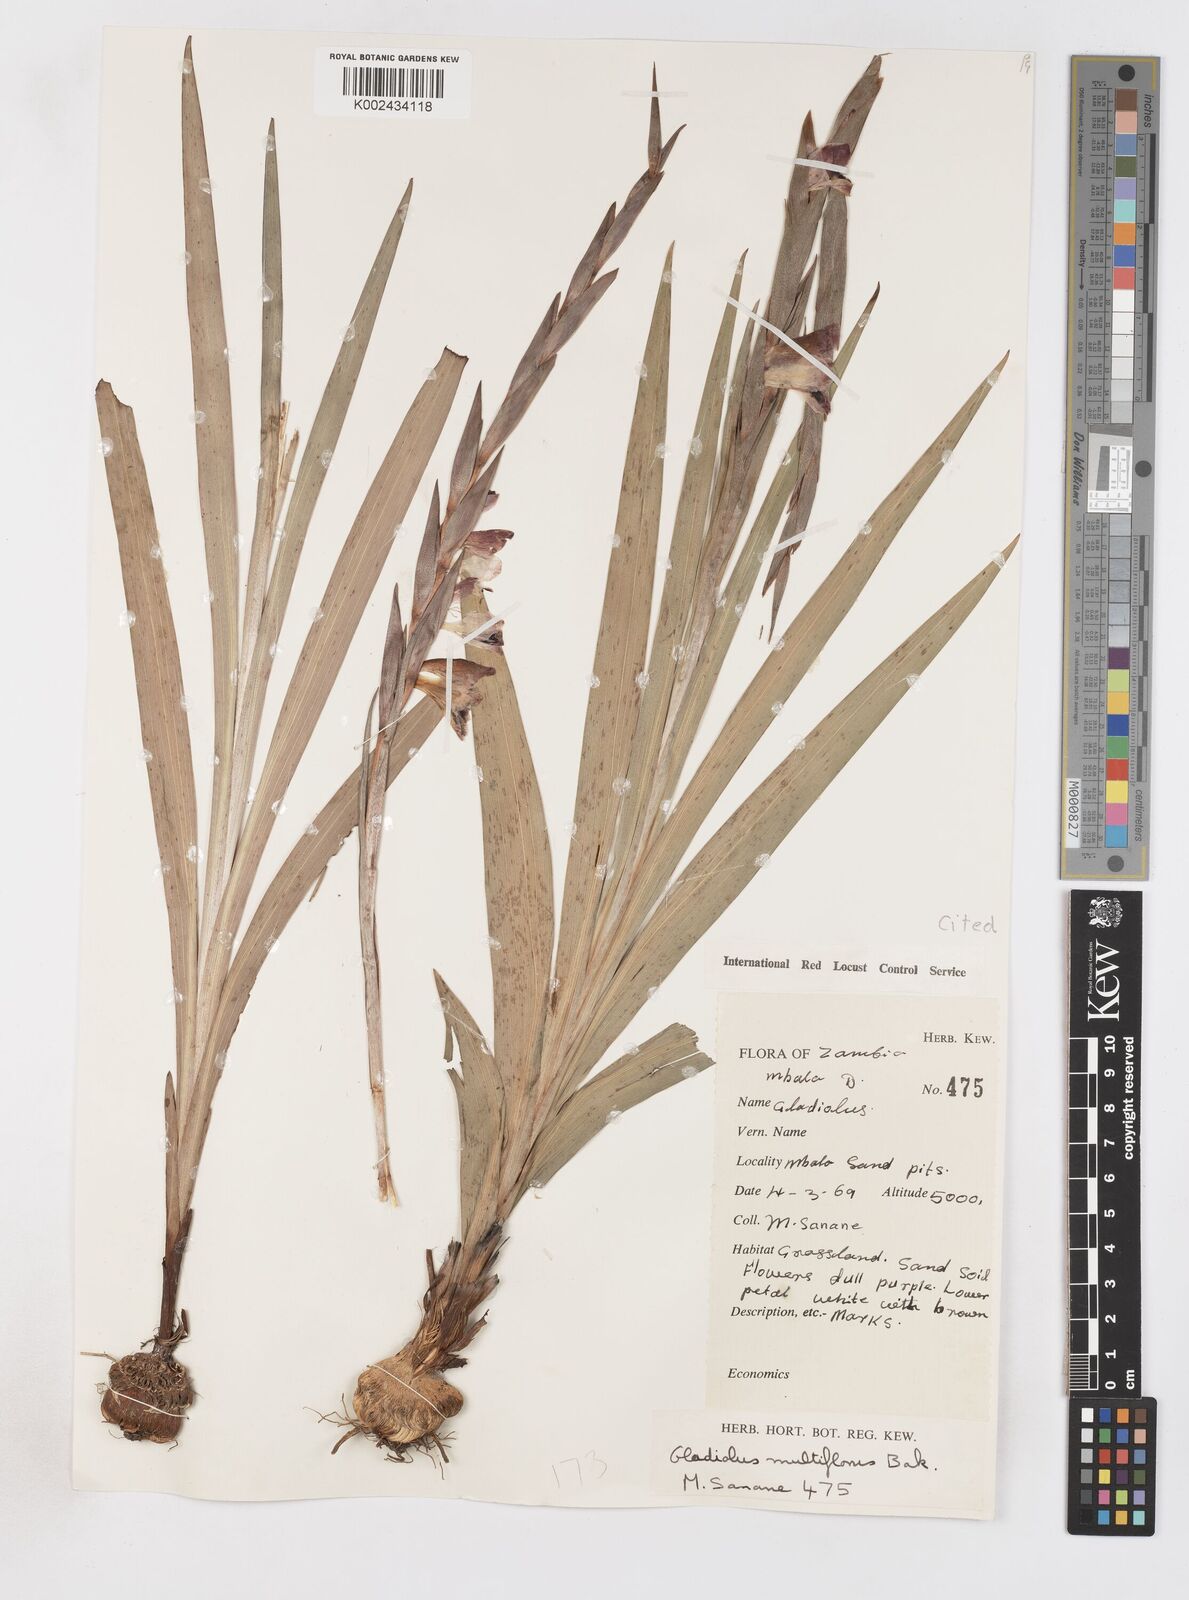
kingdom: Plantae
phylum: Tracheophyta
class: Liliopsida
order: Asparagales
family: Iridaceae
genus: Gladiolus
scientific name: Gladiolus gregarius
